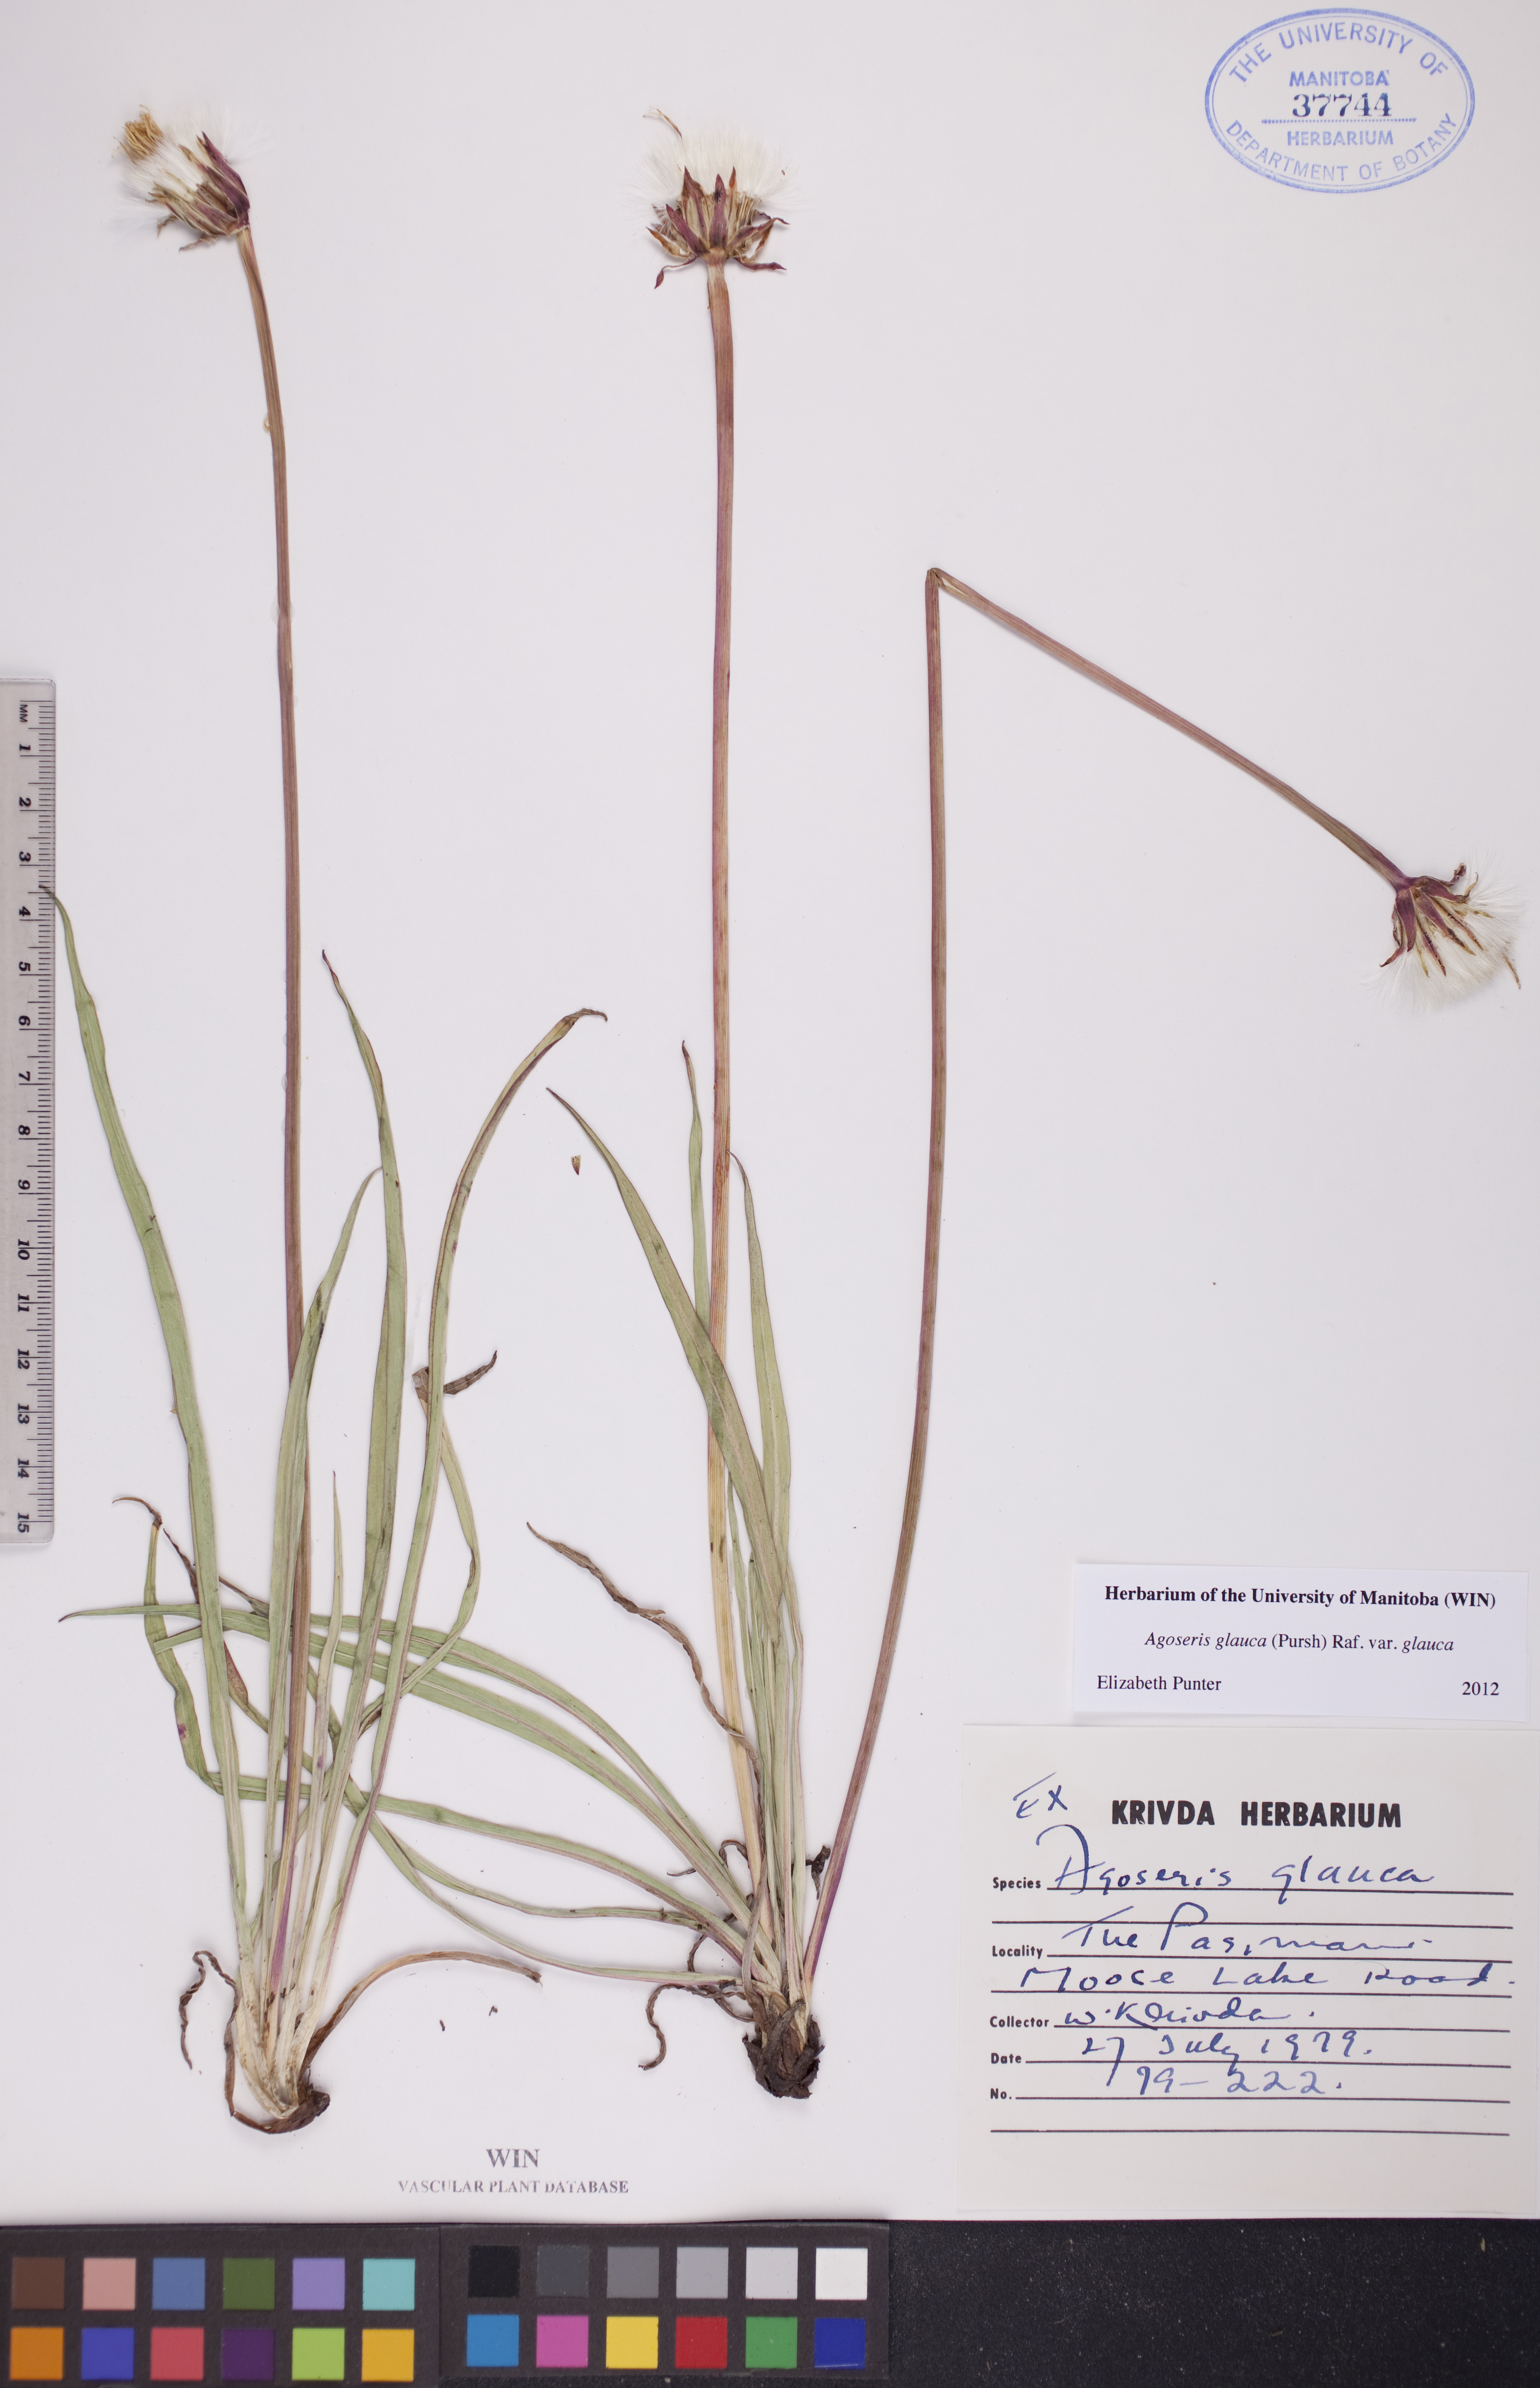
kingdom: Plantae
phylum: Tracheophyta
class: Magnoliopsida
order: Asterales
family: Asteraceae
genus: Agoseris
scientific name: Agoseris glauca
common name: Prairie agoseris
